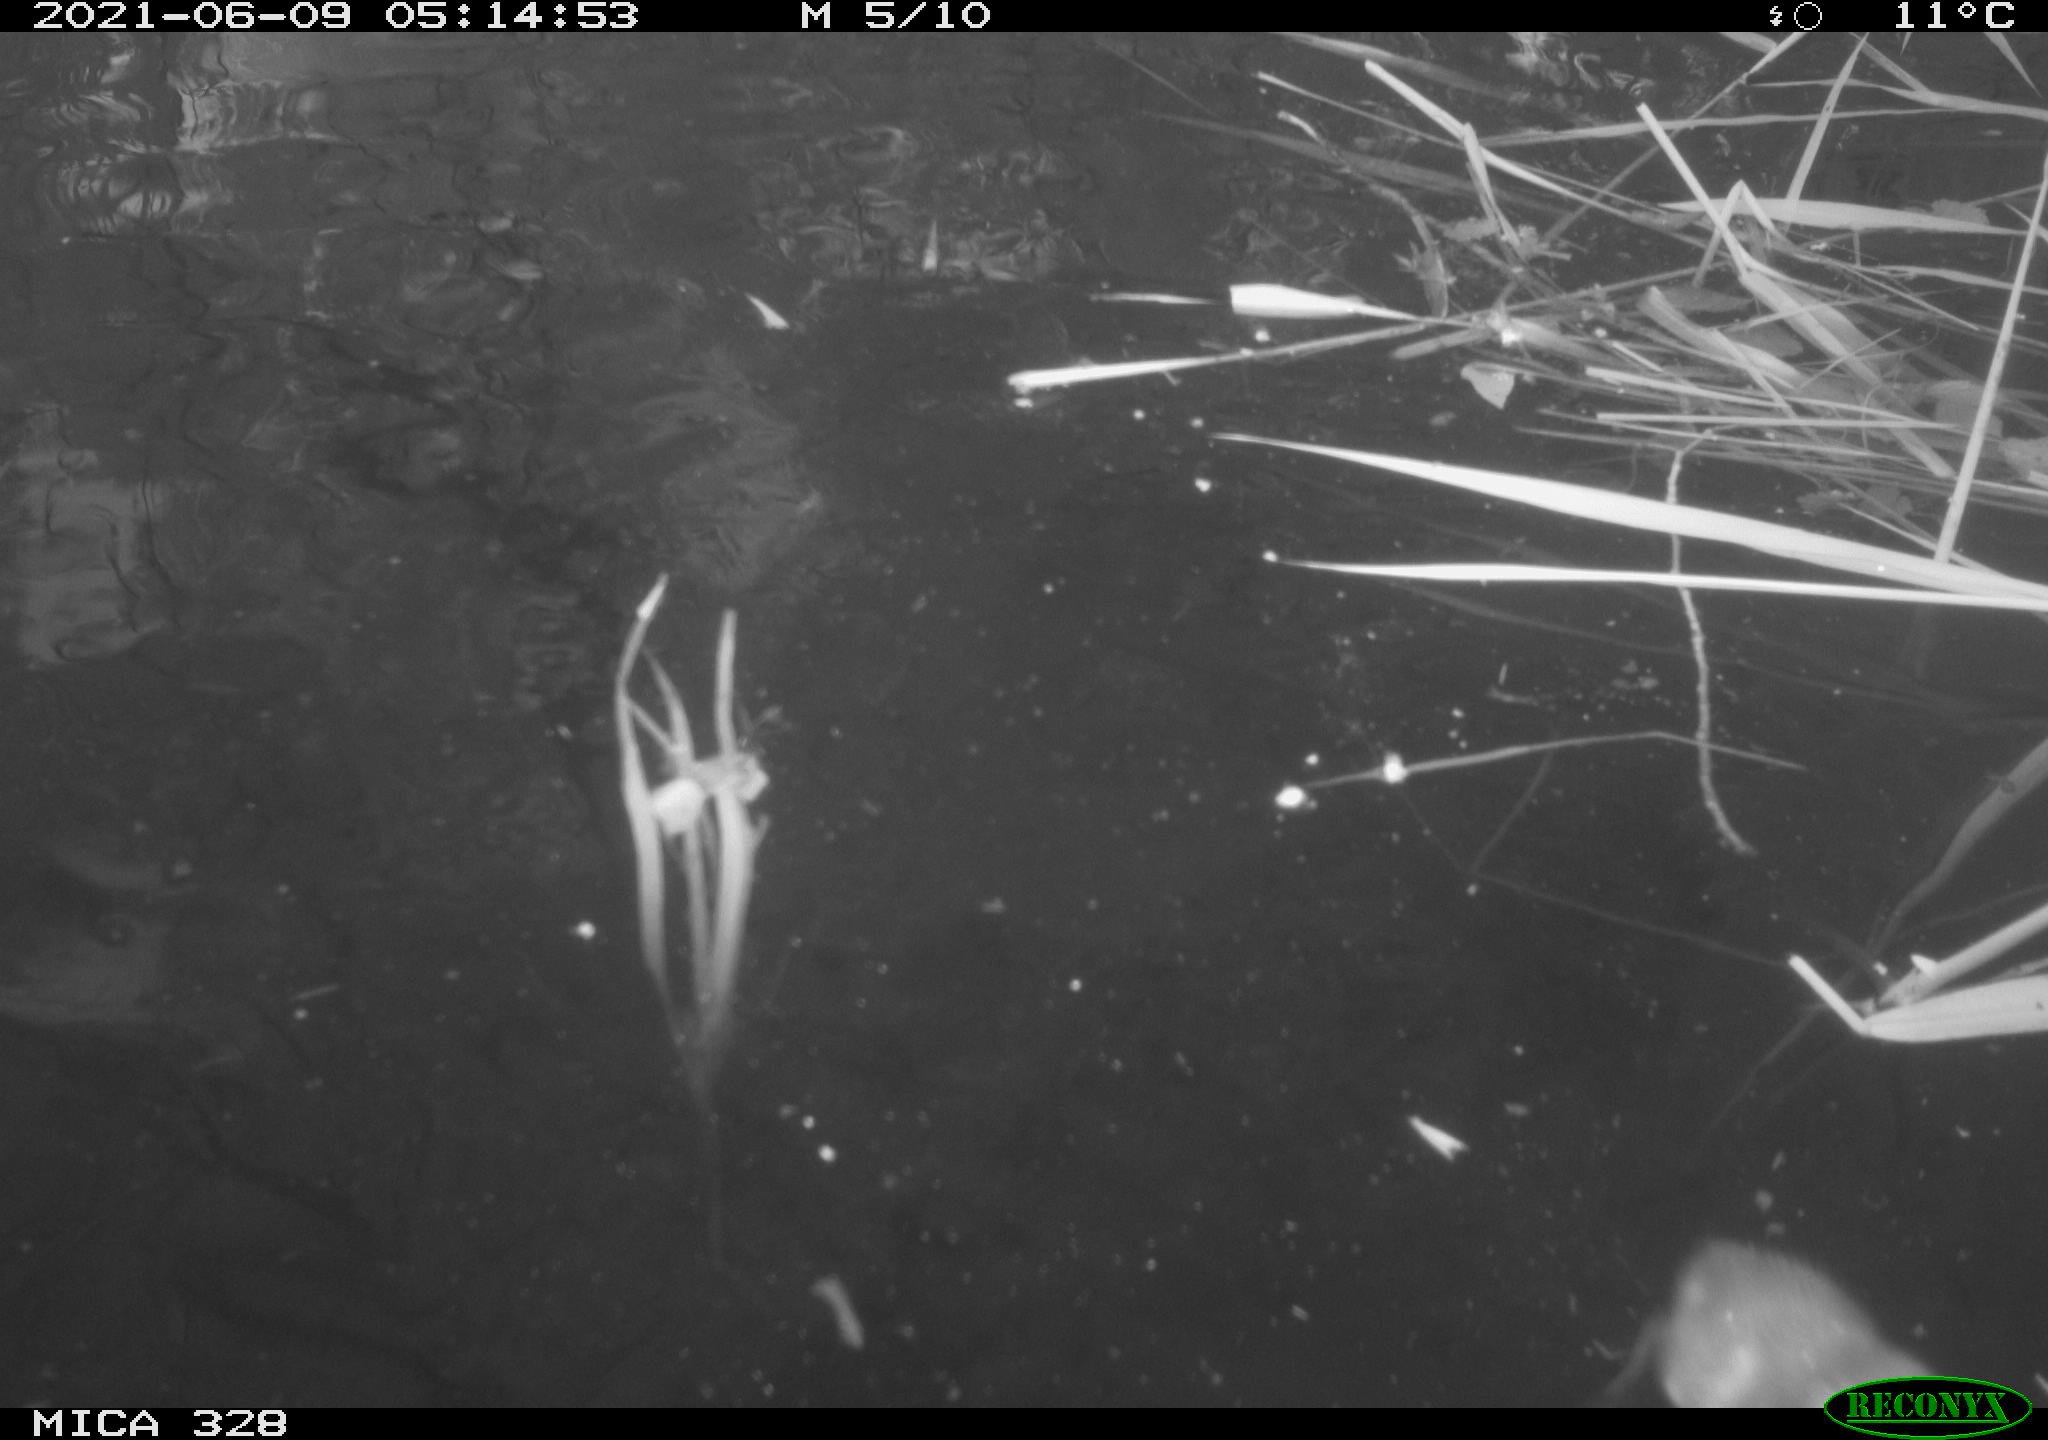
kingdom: Animalia
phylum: Chordata
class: Aves
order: Anseriformes
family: Anatidae
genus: Aix
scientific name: Aix galericulata
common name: Mandarin duck
